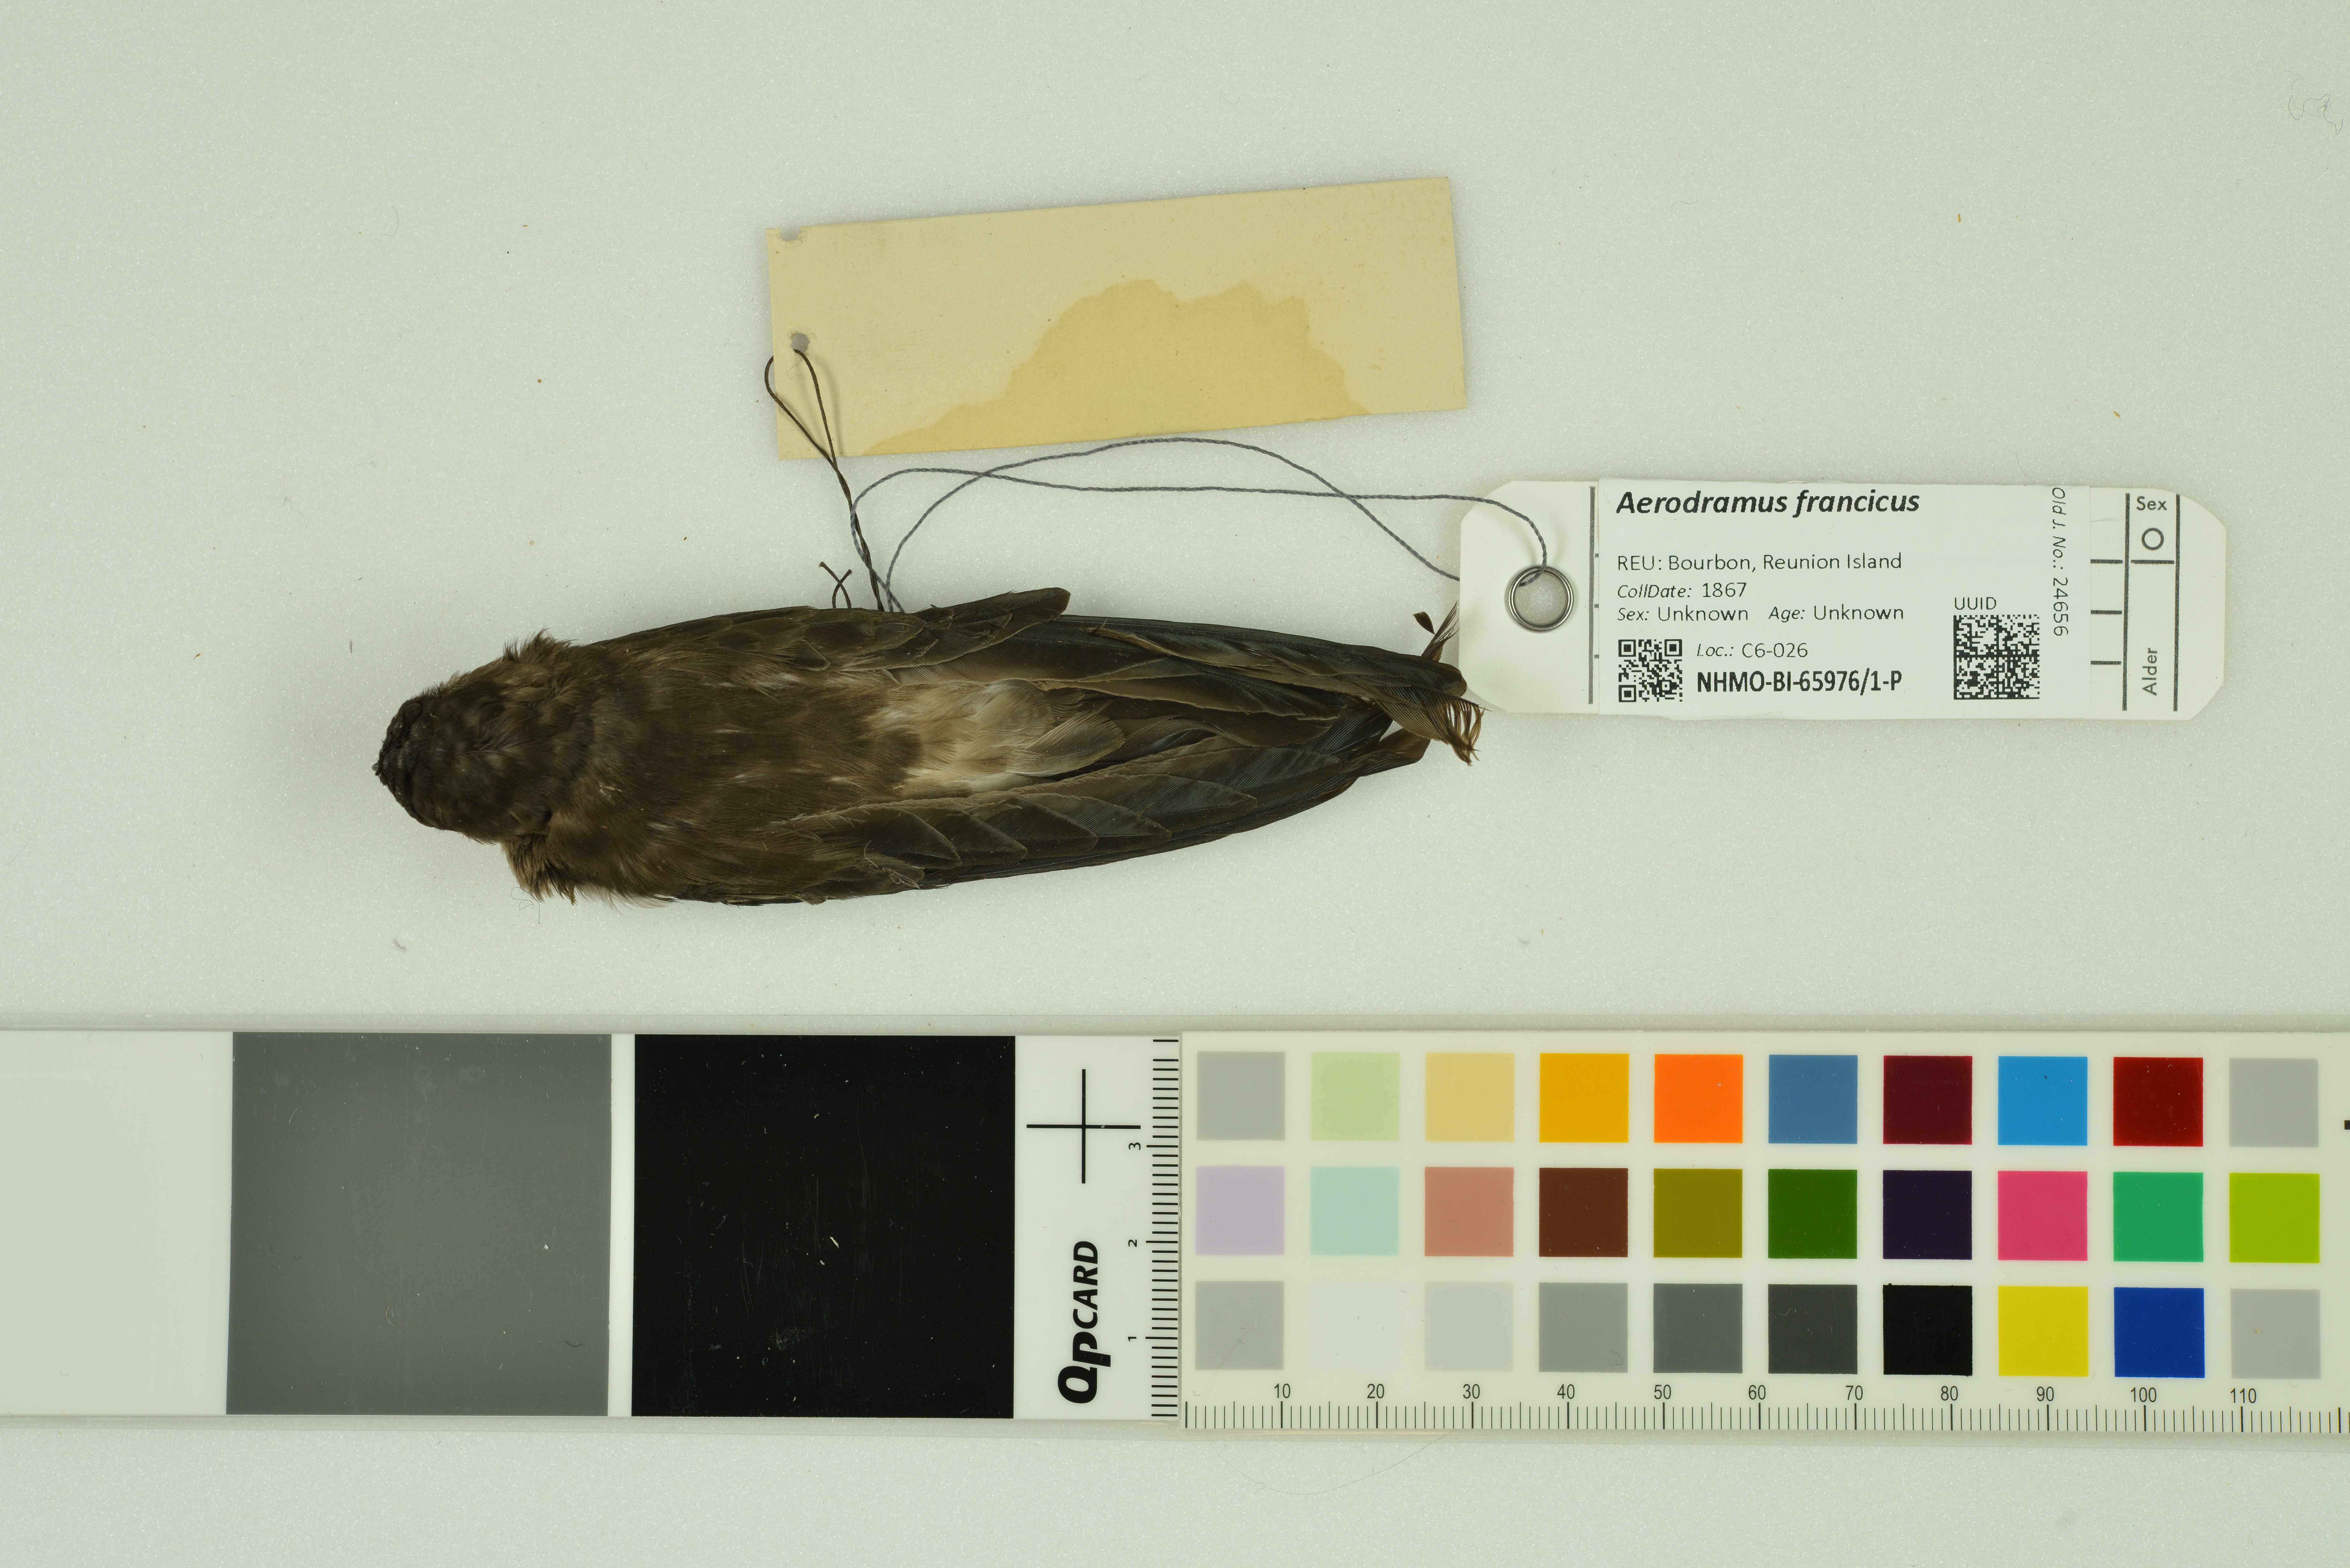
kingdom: Animalia
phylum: Chordata
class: Aves
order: Apodiformes
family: Apodidae
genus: Aerodramus
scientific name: Aerodramus francicus
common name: Mascarene swiftlet
